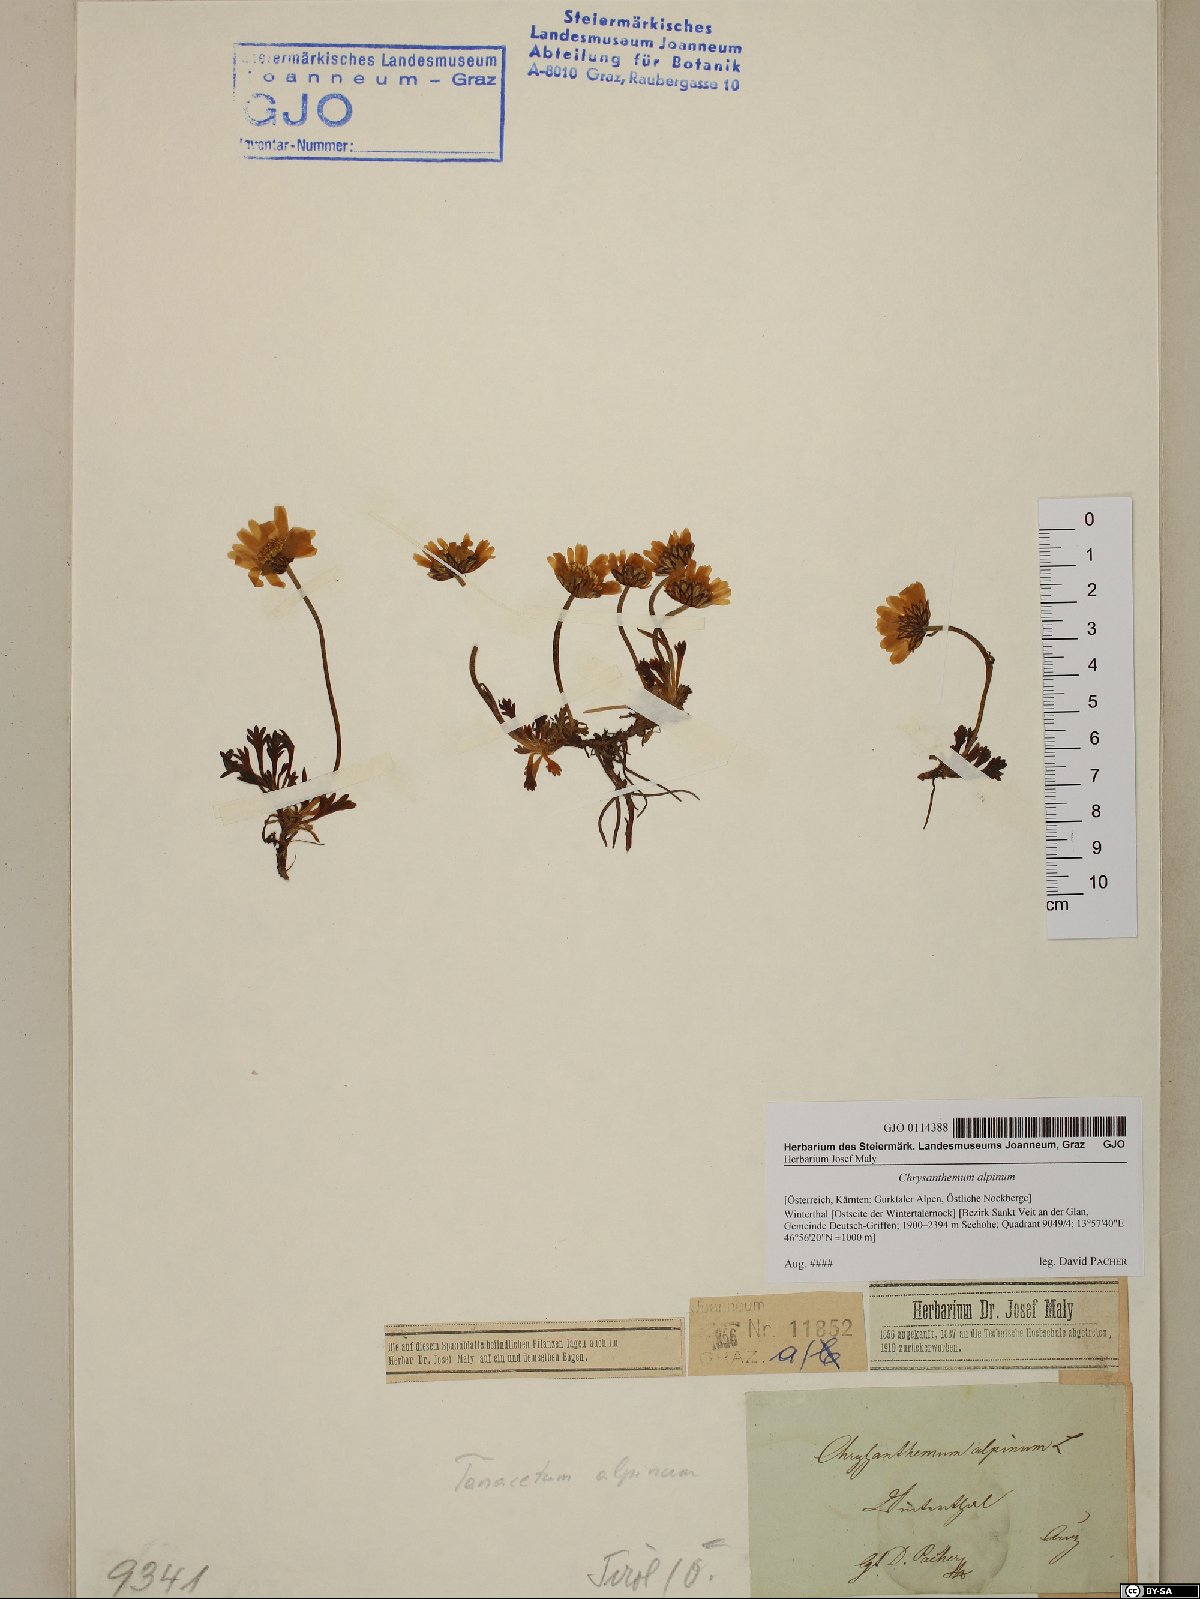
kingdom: Plantae
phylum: Tracheophyta
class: Magnoliopsida
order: Asterales
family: Asteraceae
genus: Leucanthemopsis
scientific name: Leucanthemopsis alpina
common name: Alpine moon daisy
